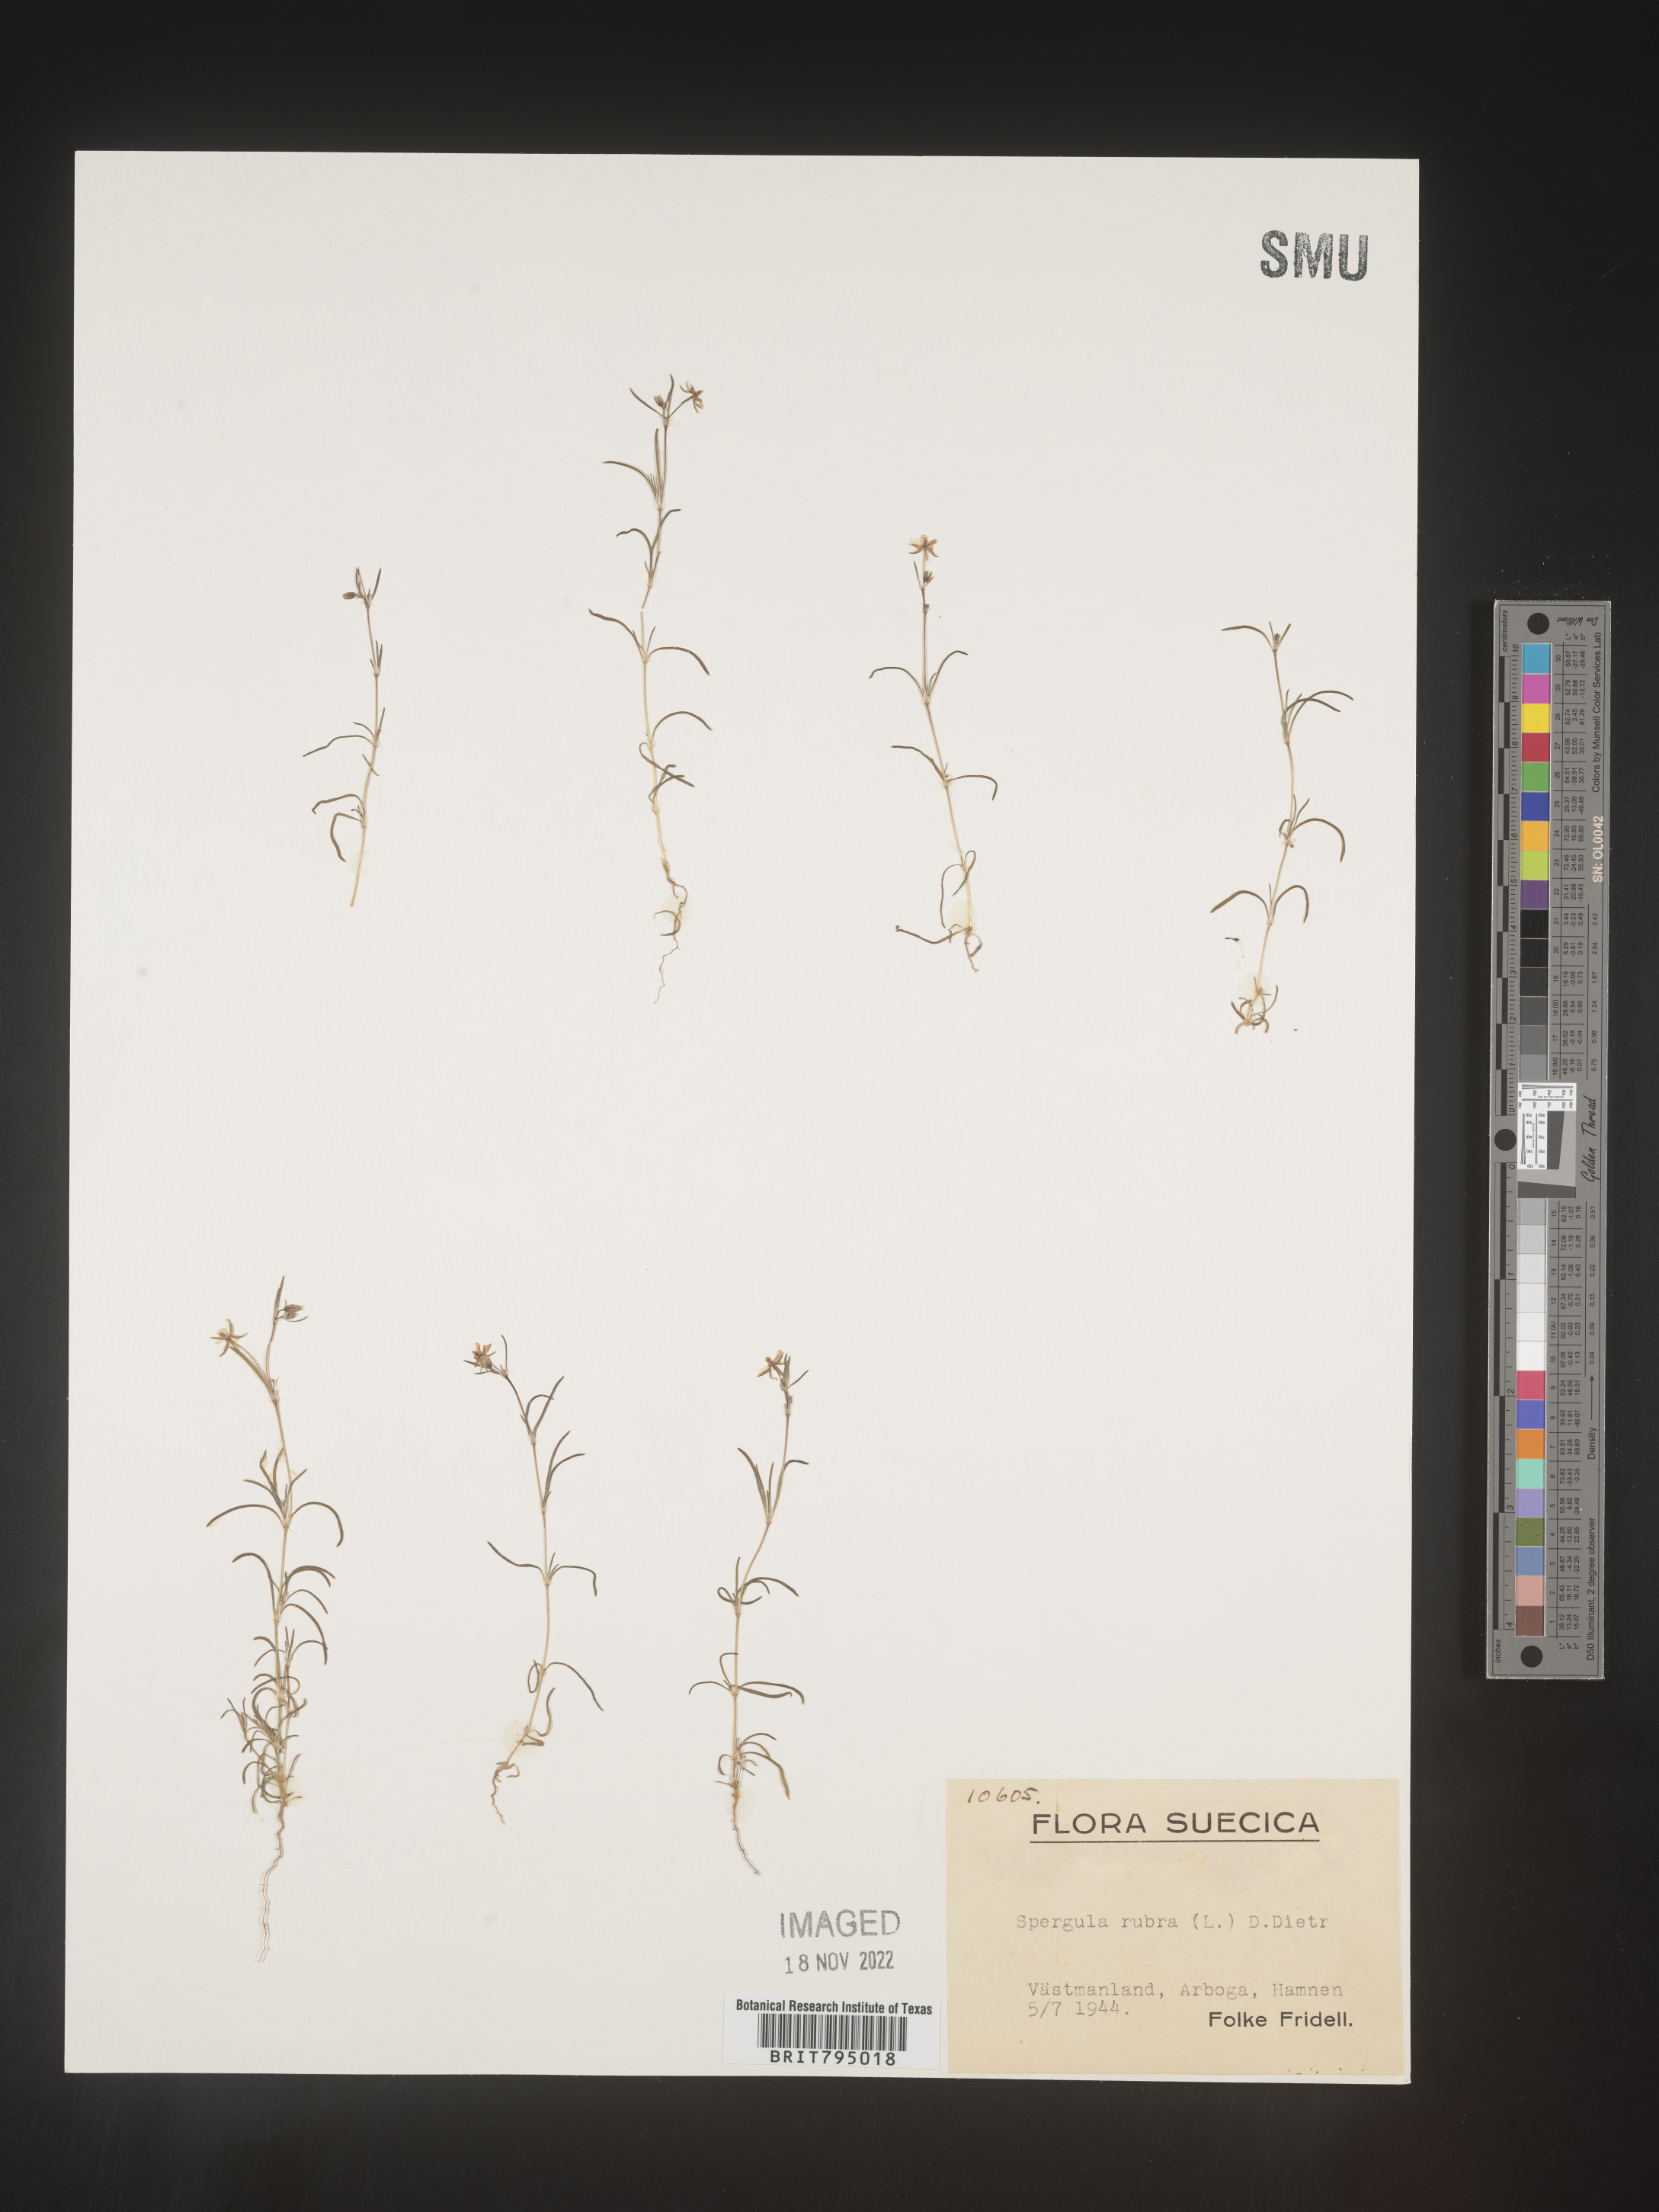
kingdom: Plantae
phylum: Tracheophyta
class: Magnoliopsida
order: Caryophyllales
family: Caryophyllaceae
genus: Spergula
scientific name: Spergula rubra
